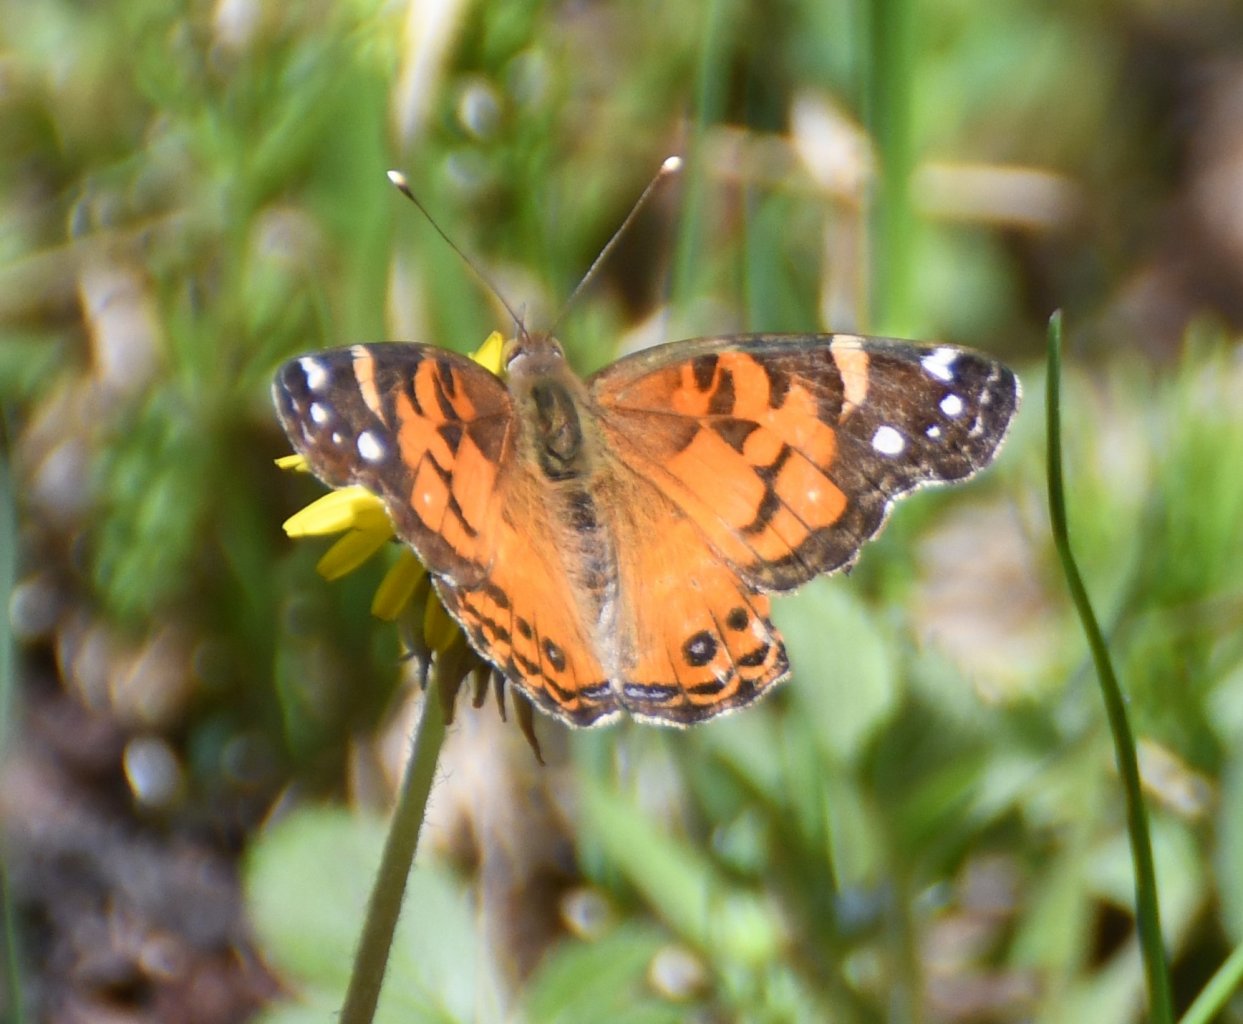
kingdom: Animalia
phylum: Arthropoda
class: Insecta
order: Lepidoptera
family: Nymphalidae
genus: Vanessa
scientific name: Vanessa virginiensis
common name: American Lady
